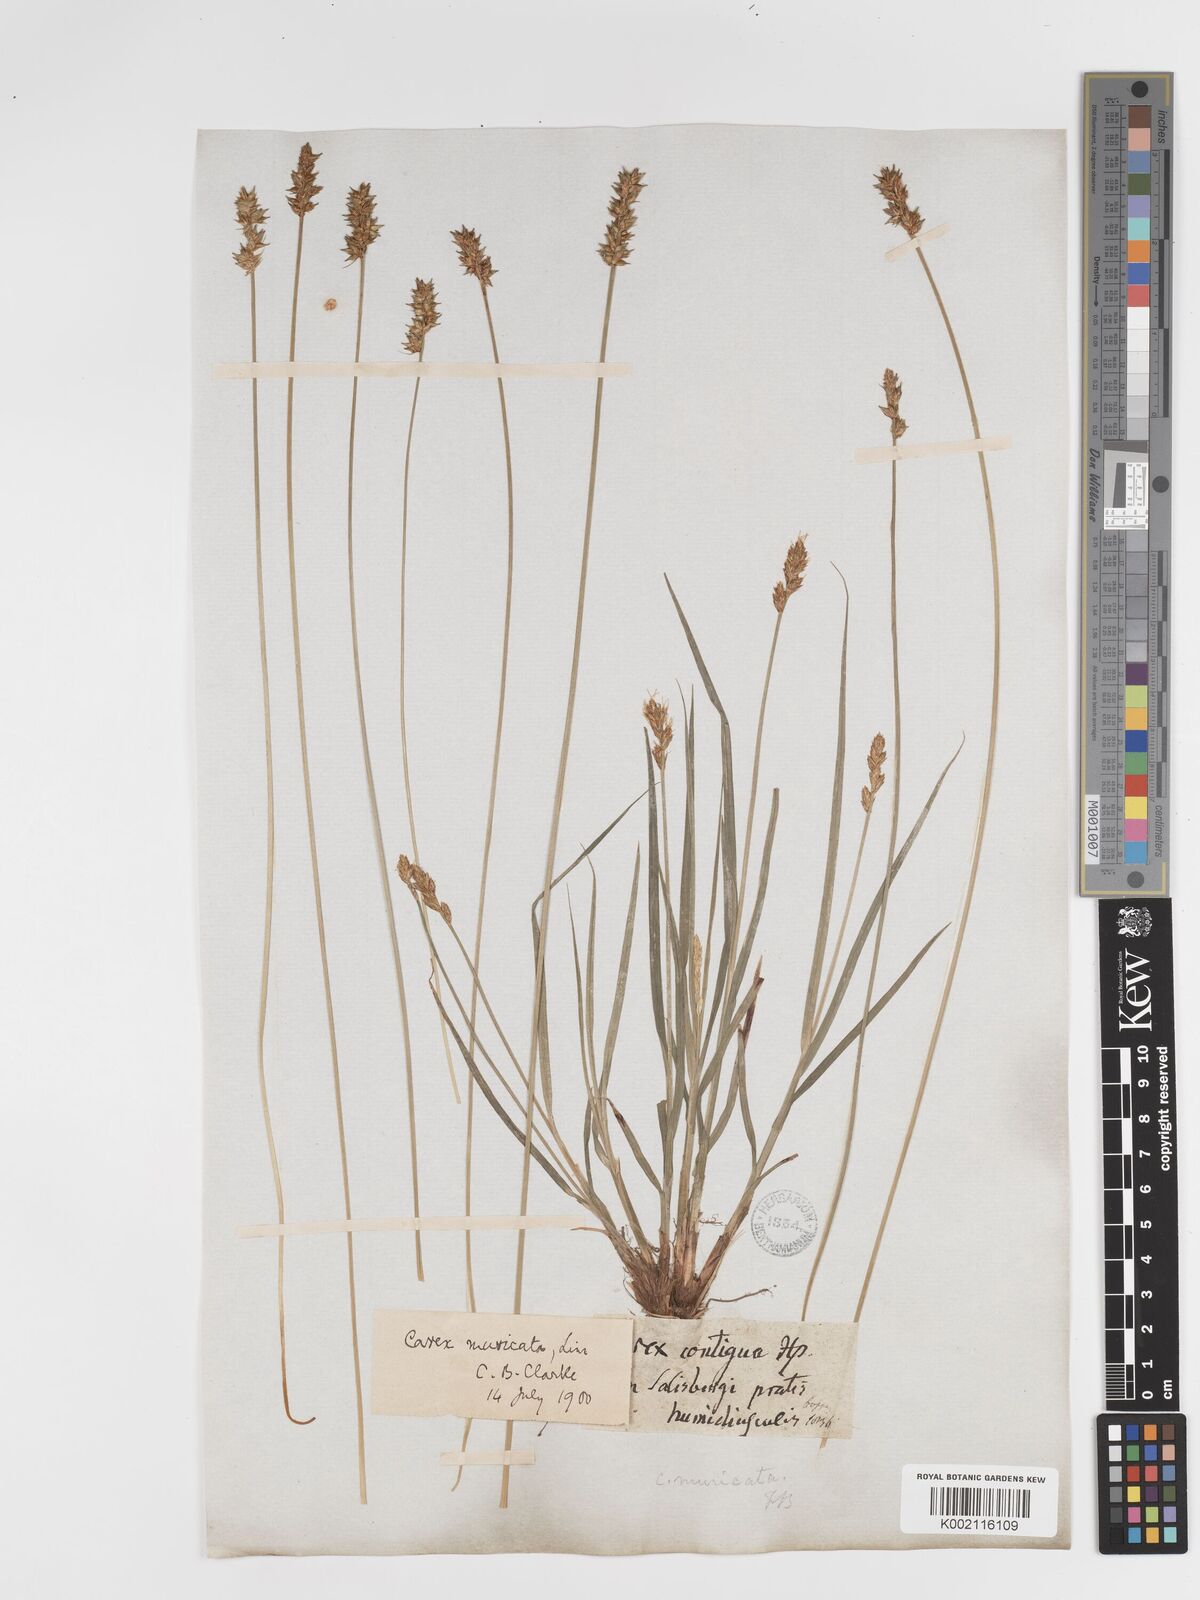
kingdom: Plantae
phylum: Tracheophyta
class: Liliopsida
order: Poales
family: Cyperaceae
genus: Carex
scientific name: Carex spicata
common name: Spiked sedge
